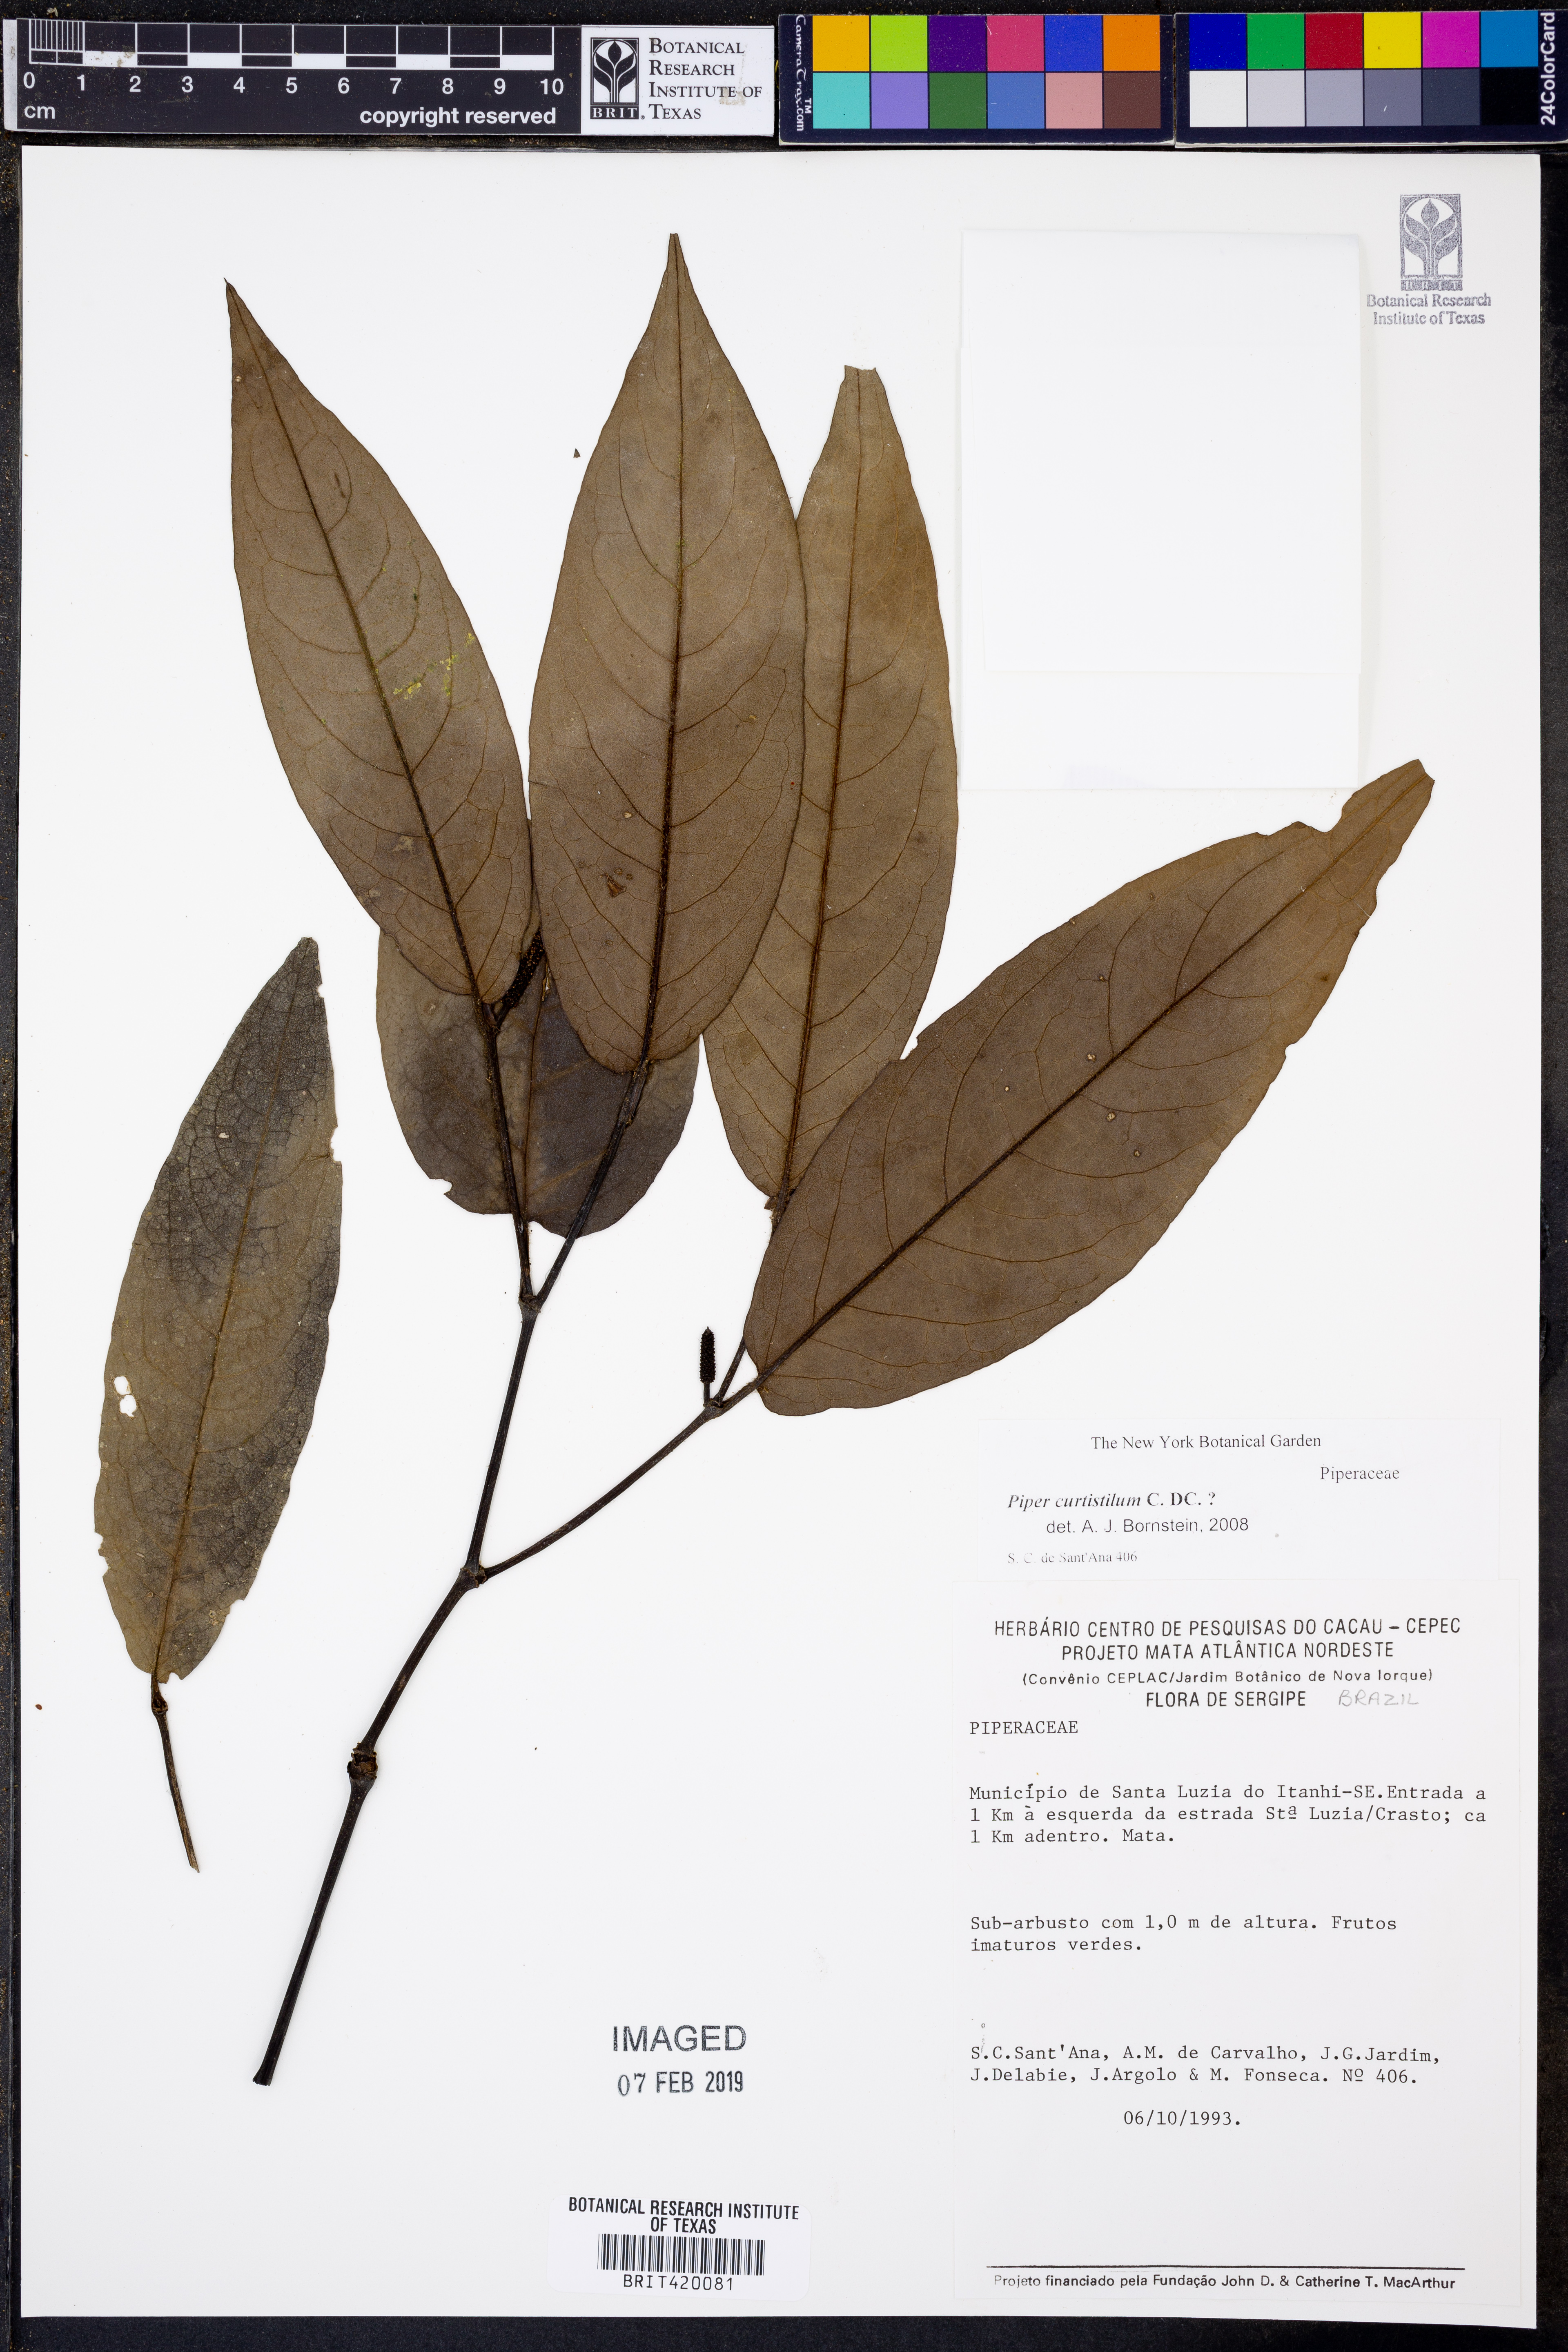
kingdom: Plantae
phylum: Tracheophyta
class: Magnoliopsida
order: Piperales
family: Piperaceae
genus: Piper
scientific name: Piper curtistilum
